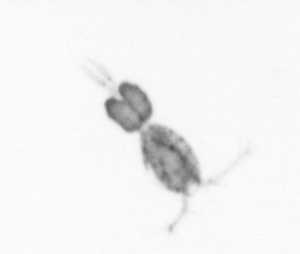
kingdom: Animalia
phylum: Arthropoda
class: Copepoda
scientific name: Copepoda
